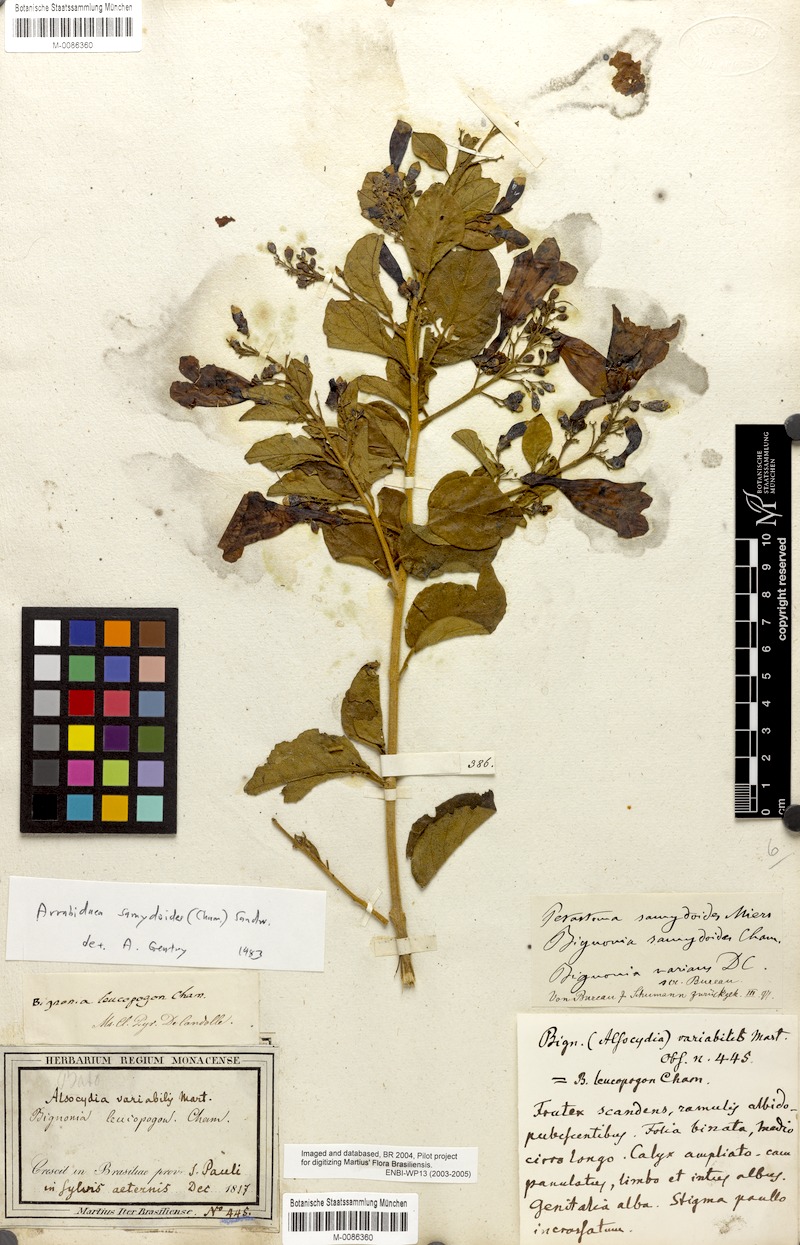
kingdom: Plantae
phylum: Tracheophyta
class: Magnoliopsida
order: Lamiales
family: Bignoniaceae
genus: Fridericia
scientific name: Fridericia samydoides
